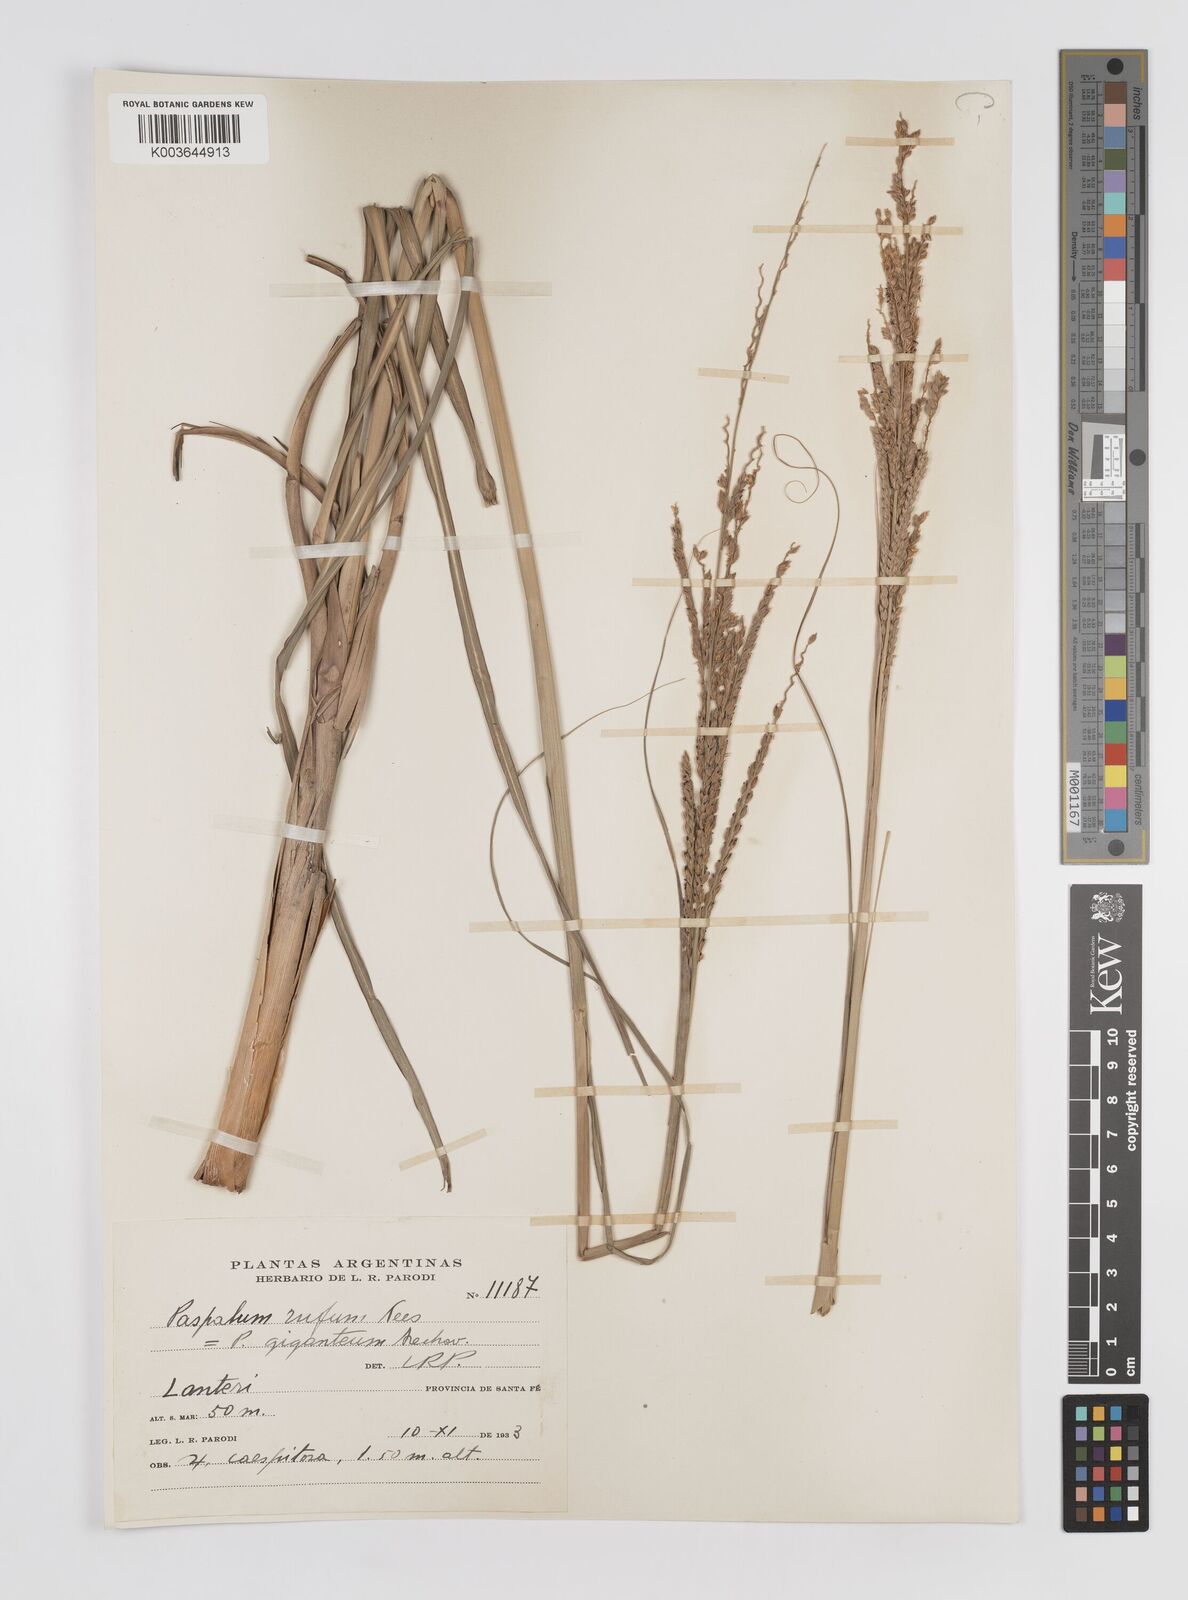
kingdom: Plantae
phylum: Tracheophyta
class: Liliopsida
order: Poales
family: Poaceae
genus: Paspalum
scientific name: Paspalum rufum
